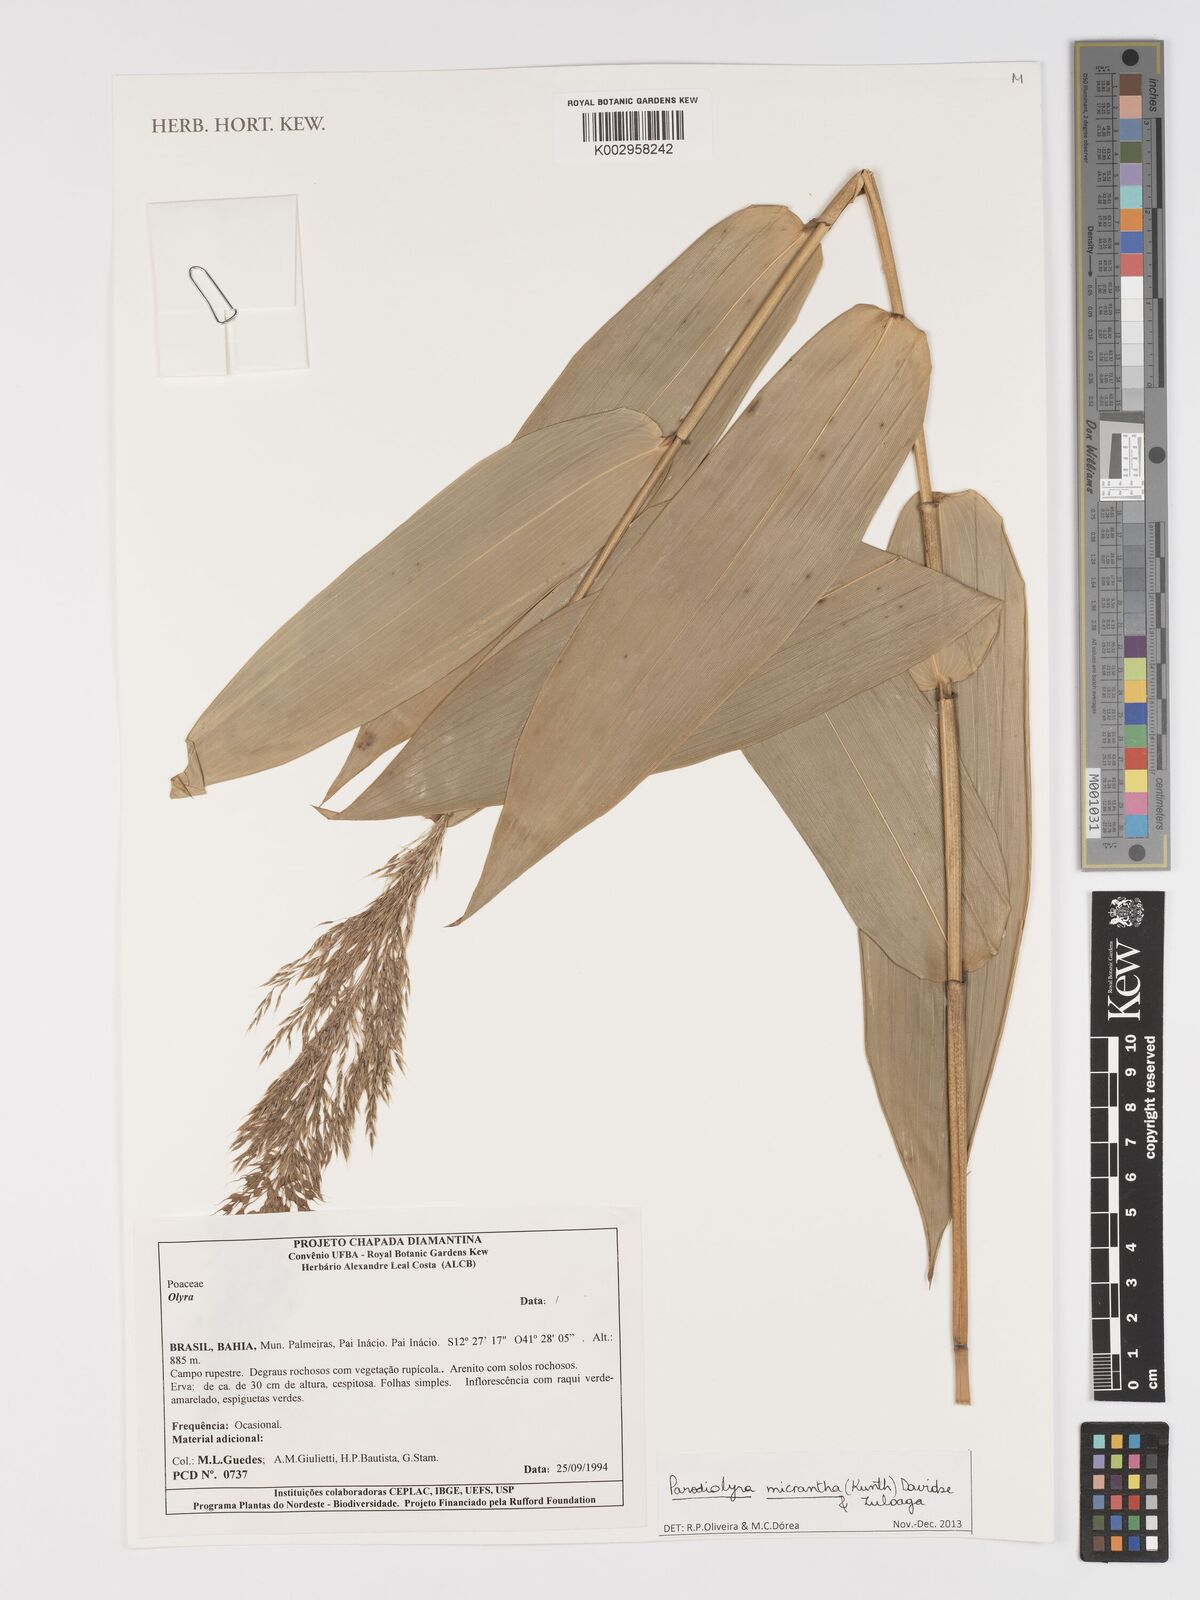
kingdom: Plantae
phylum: Tracheophyta
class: Liliopsida
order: Poales
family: Poaceae
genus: Taquara
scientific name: Taquara micrantha
